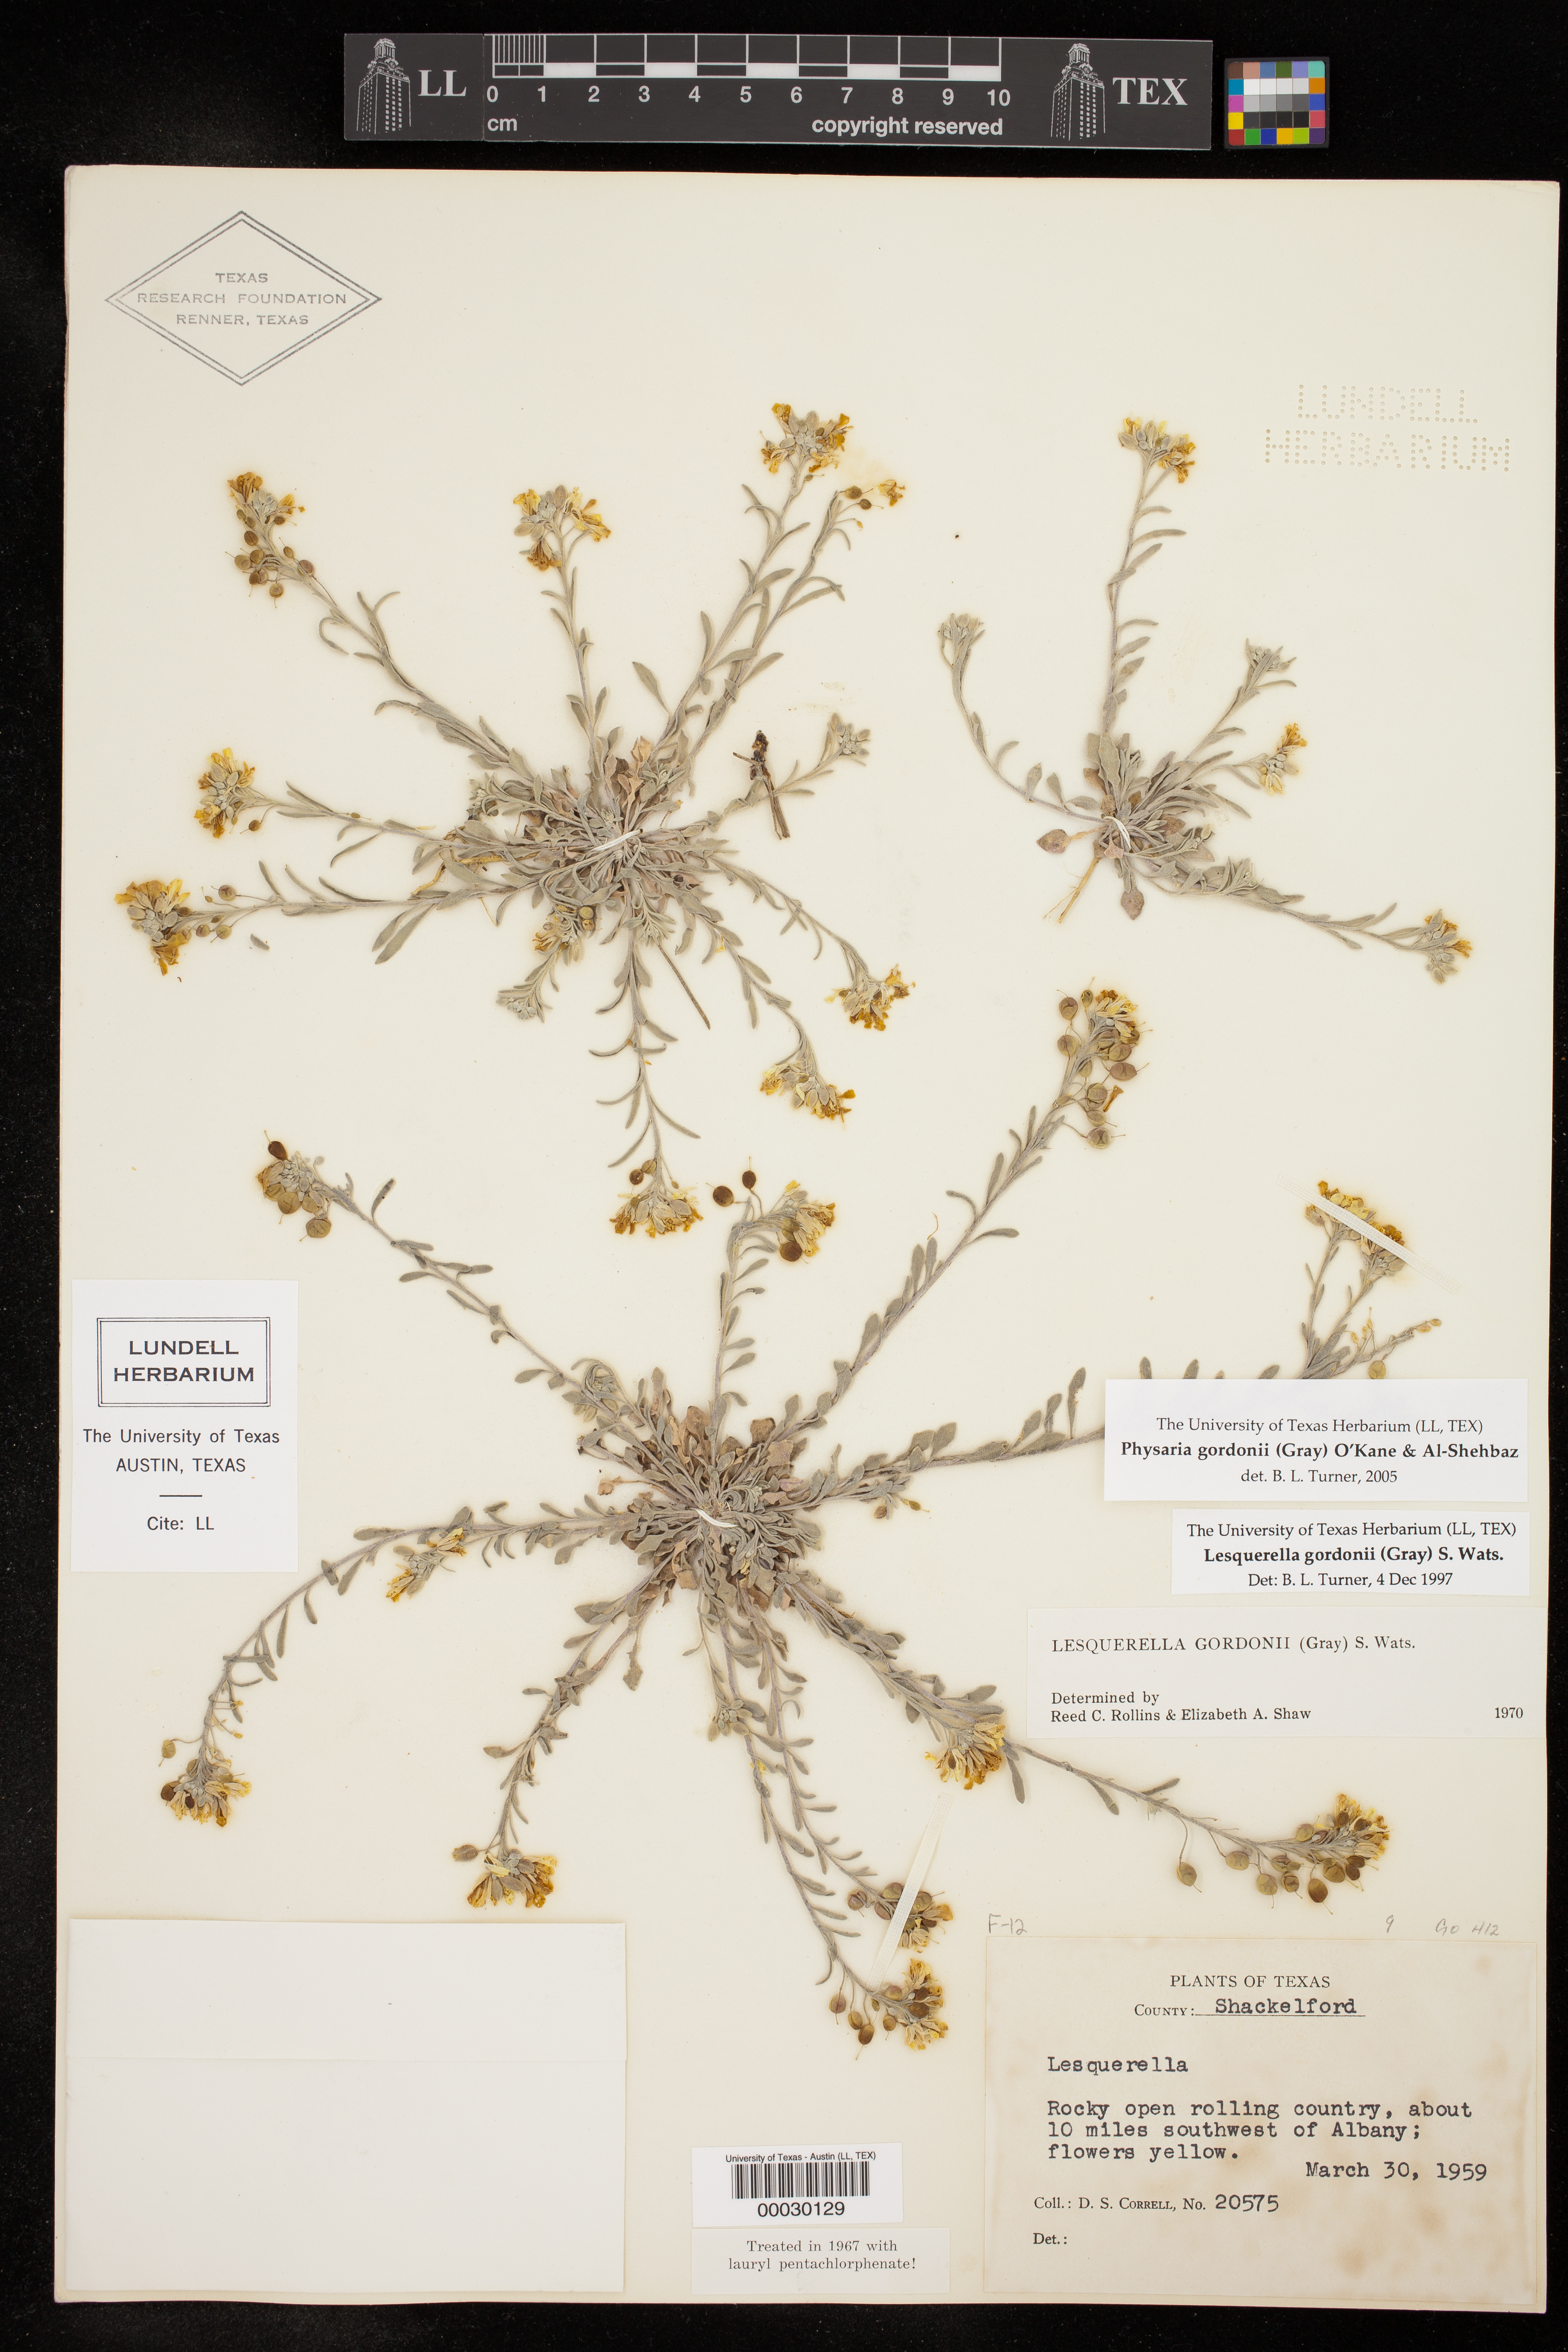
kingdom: Plantae
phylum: Tracheophyta
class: Magnoliopsida
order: Brassicales
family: Brassicaceae
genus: Physaria
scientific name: Physaria gordonii
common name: Gordon's bladderpod
